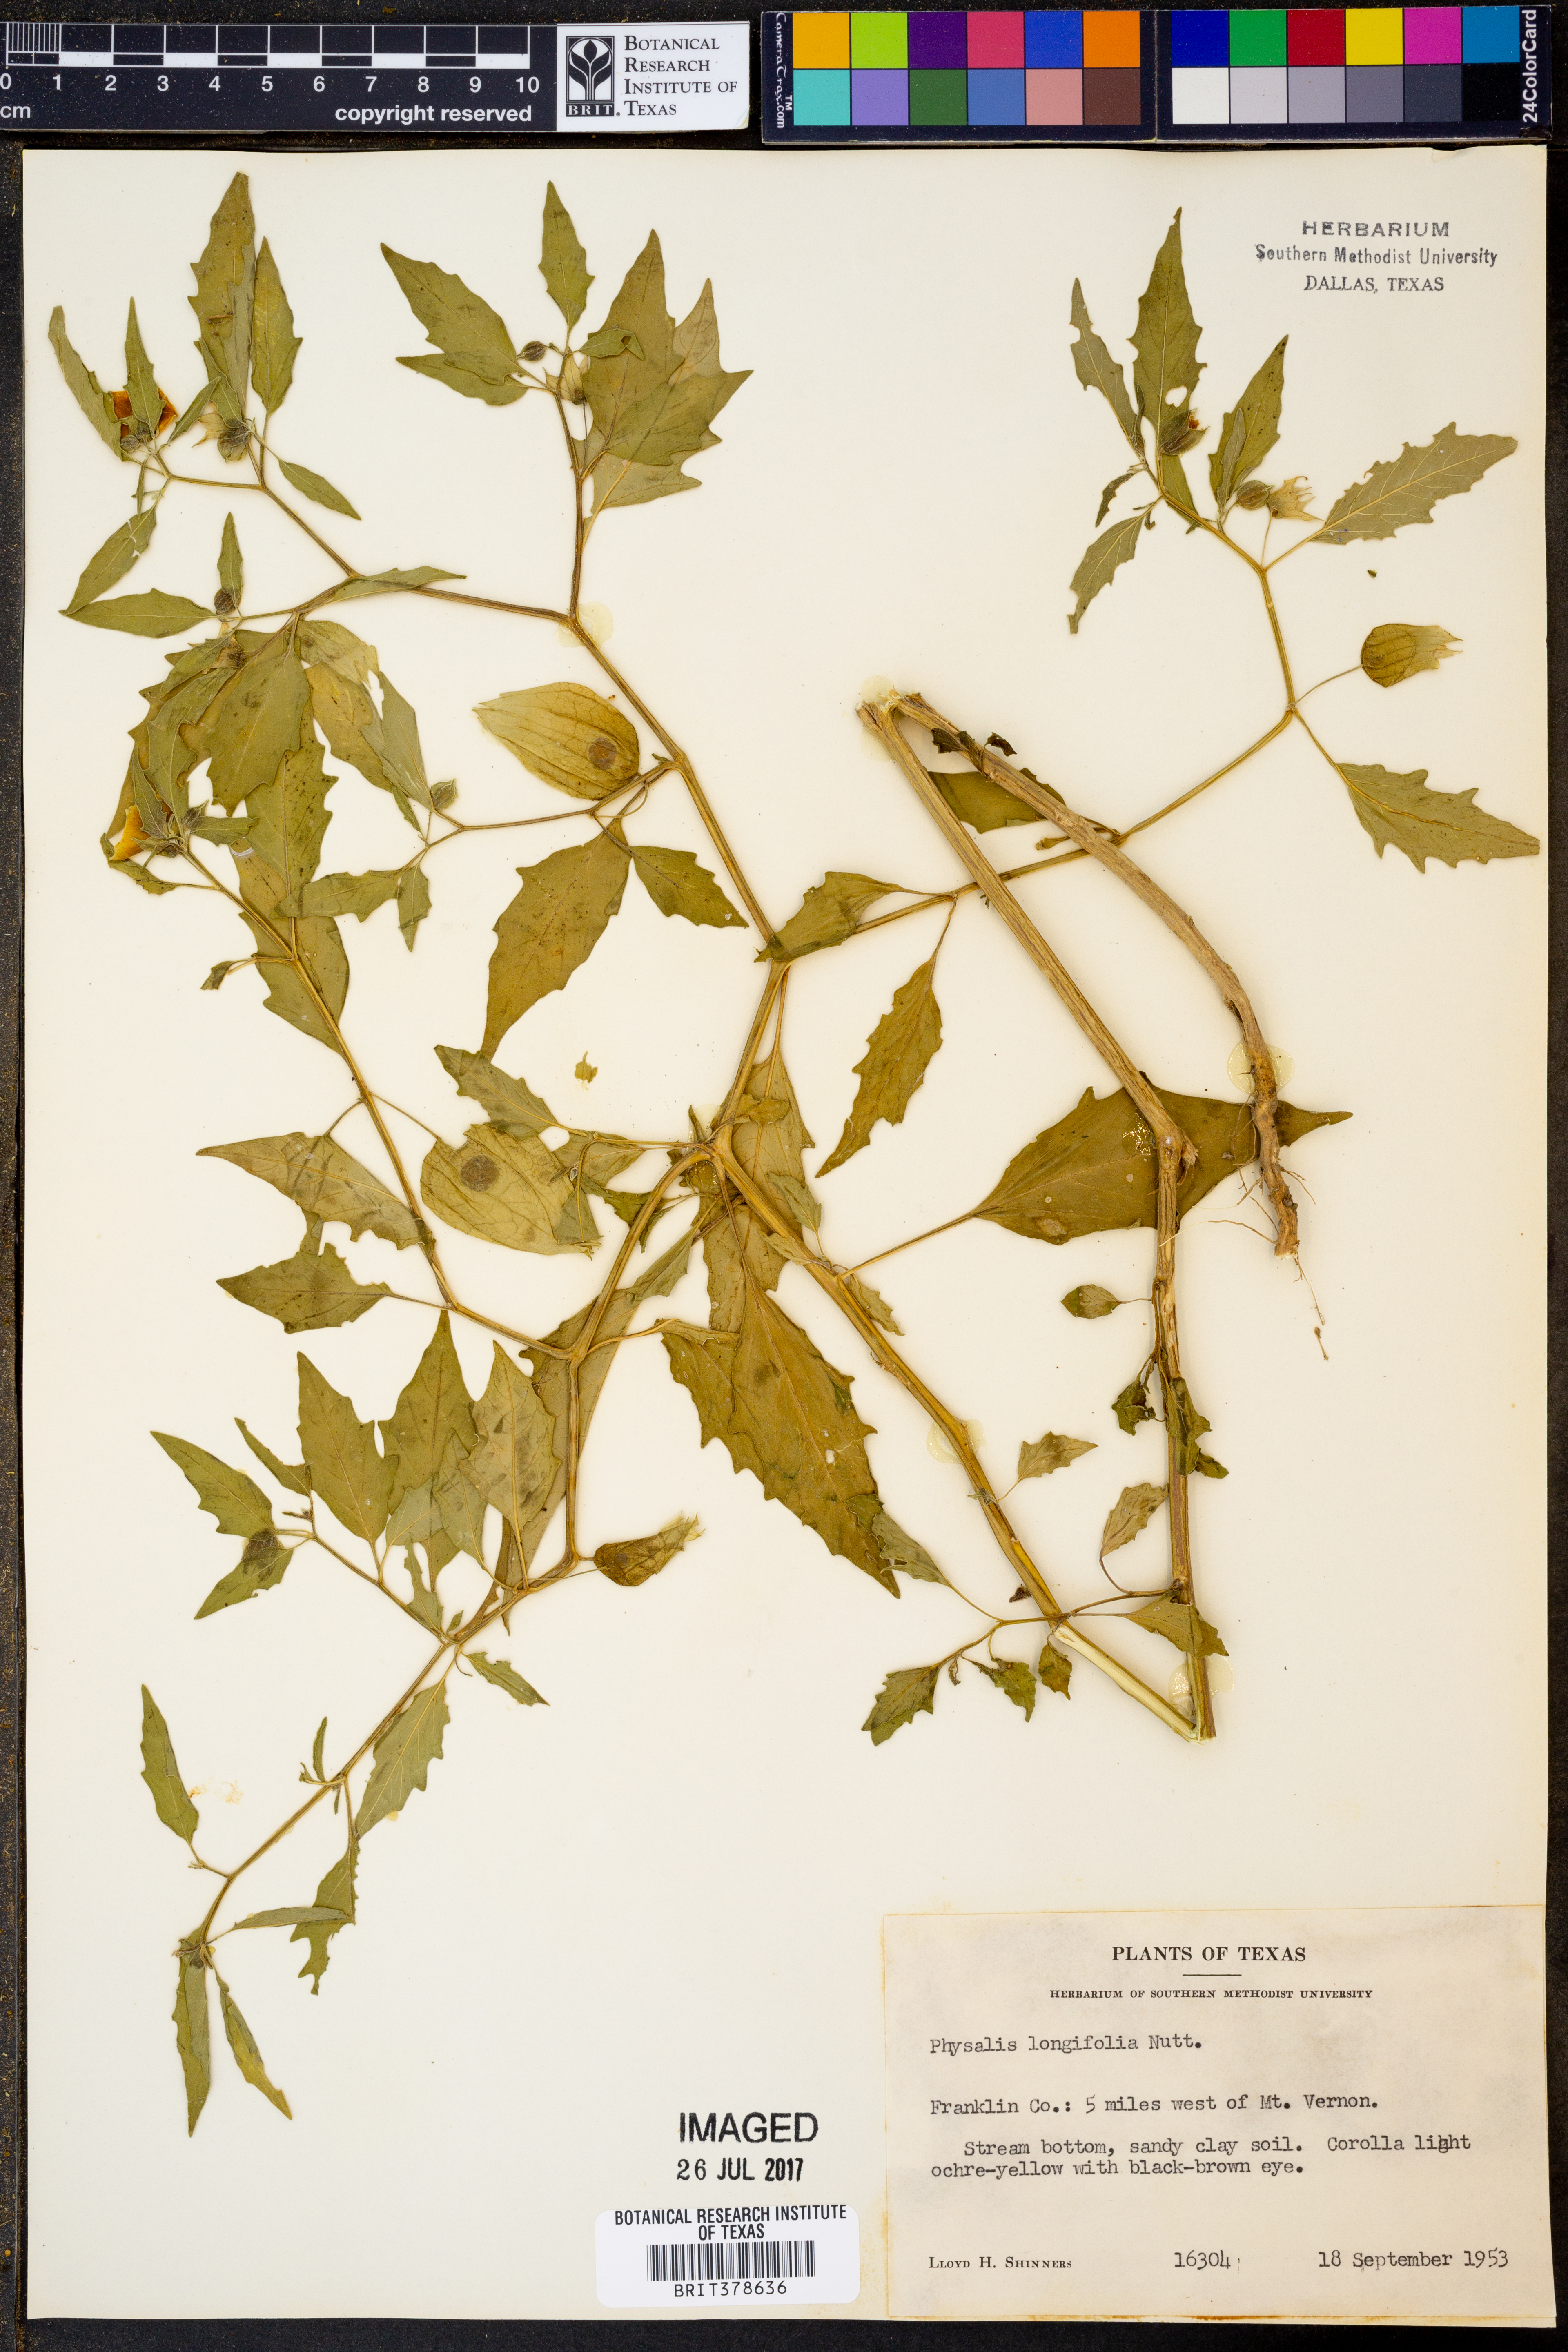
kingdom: Plantae
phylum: Tracheophyta
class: Magnoliopsida
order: Solanales
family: Solanaceae
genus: Physalis
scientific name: Physalis longifolia
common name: Common ground-cherry
